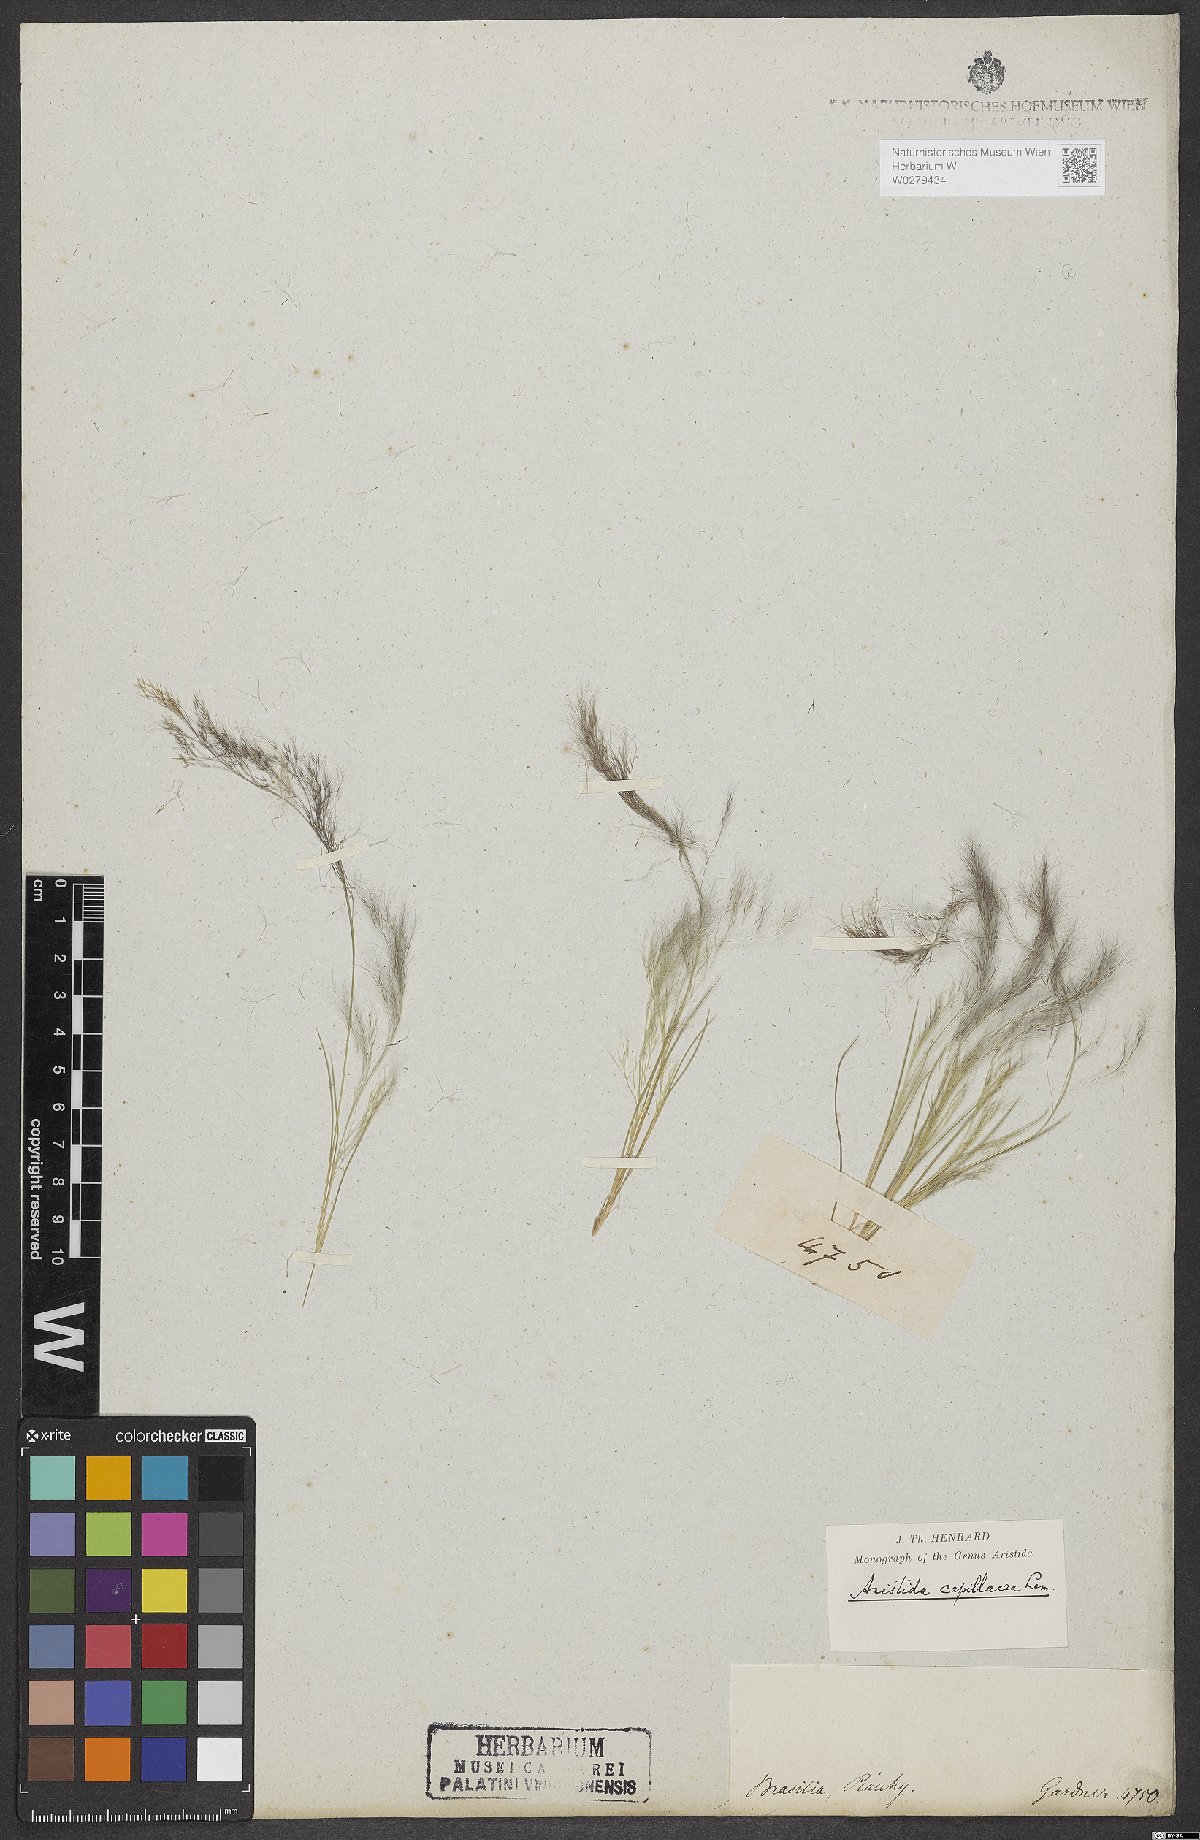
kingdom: Plantae
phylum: Tracheophyta
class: Liliopsida
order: Poales
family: Poaceae
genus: Aristida
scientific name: Aristida capillacea
